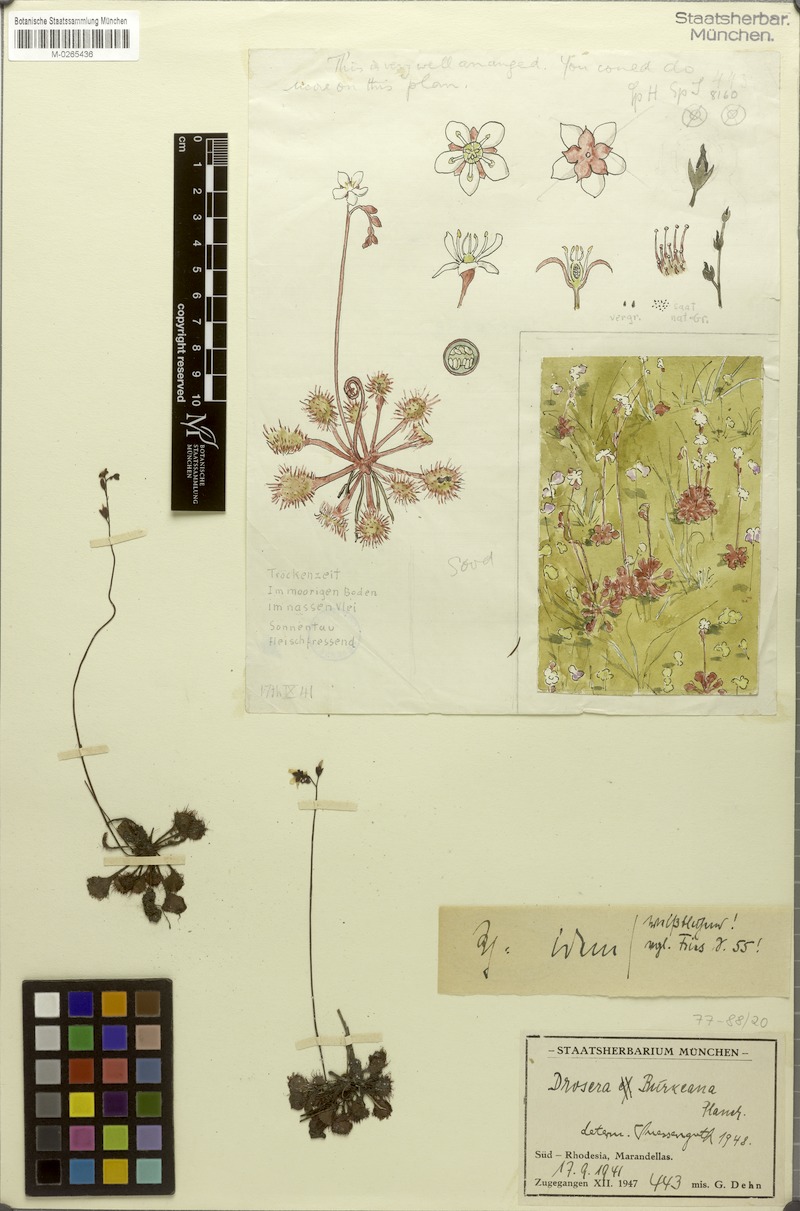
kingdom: Plantae
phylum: Tracheophyta
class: Magnoliopsida
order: Caryophyllales
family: Droseraceae
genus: Drosera
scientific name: Drosera burkeana
